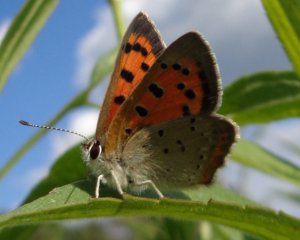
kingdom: Animalia
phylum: Arthropoda
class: Insecta
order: Lepidoptera
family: Lycaenidae
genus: Lycaena
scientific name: Lycaena phlaeas
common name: American Copper
